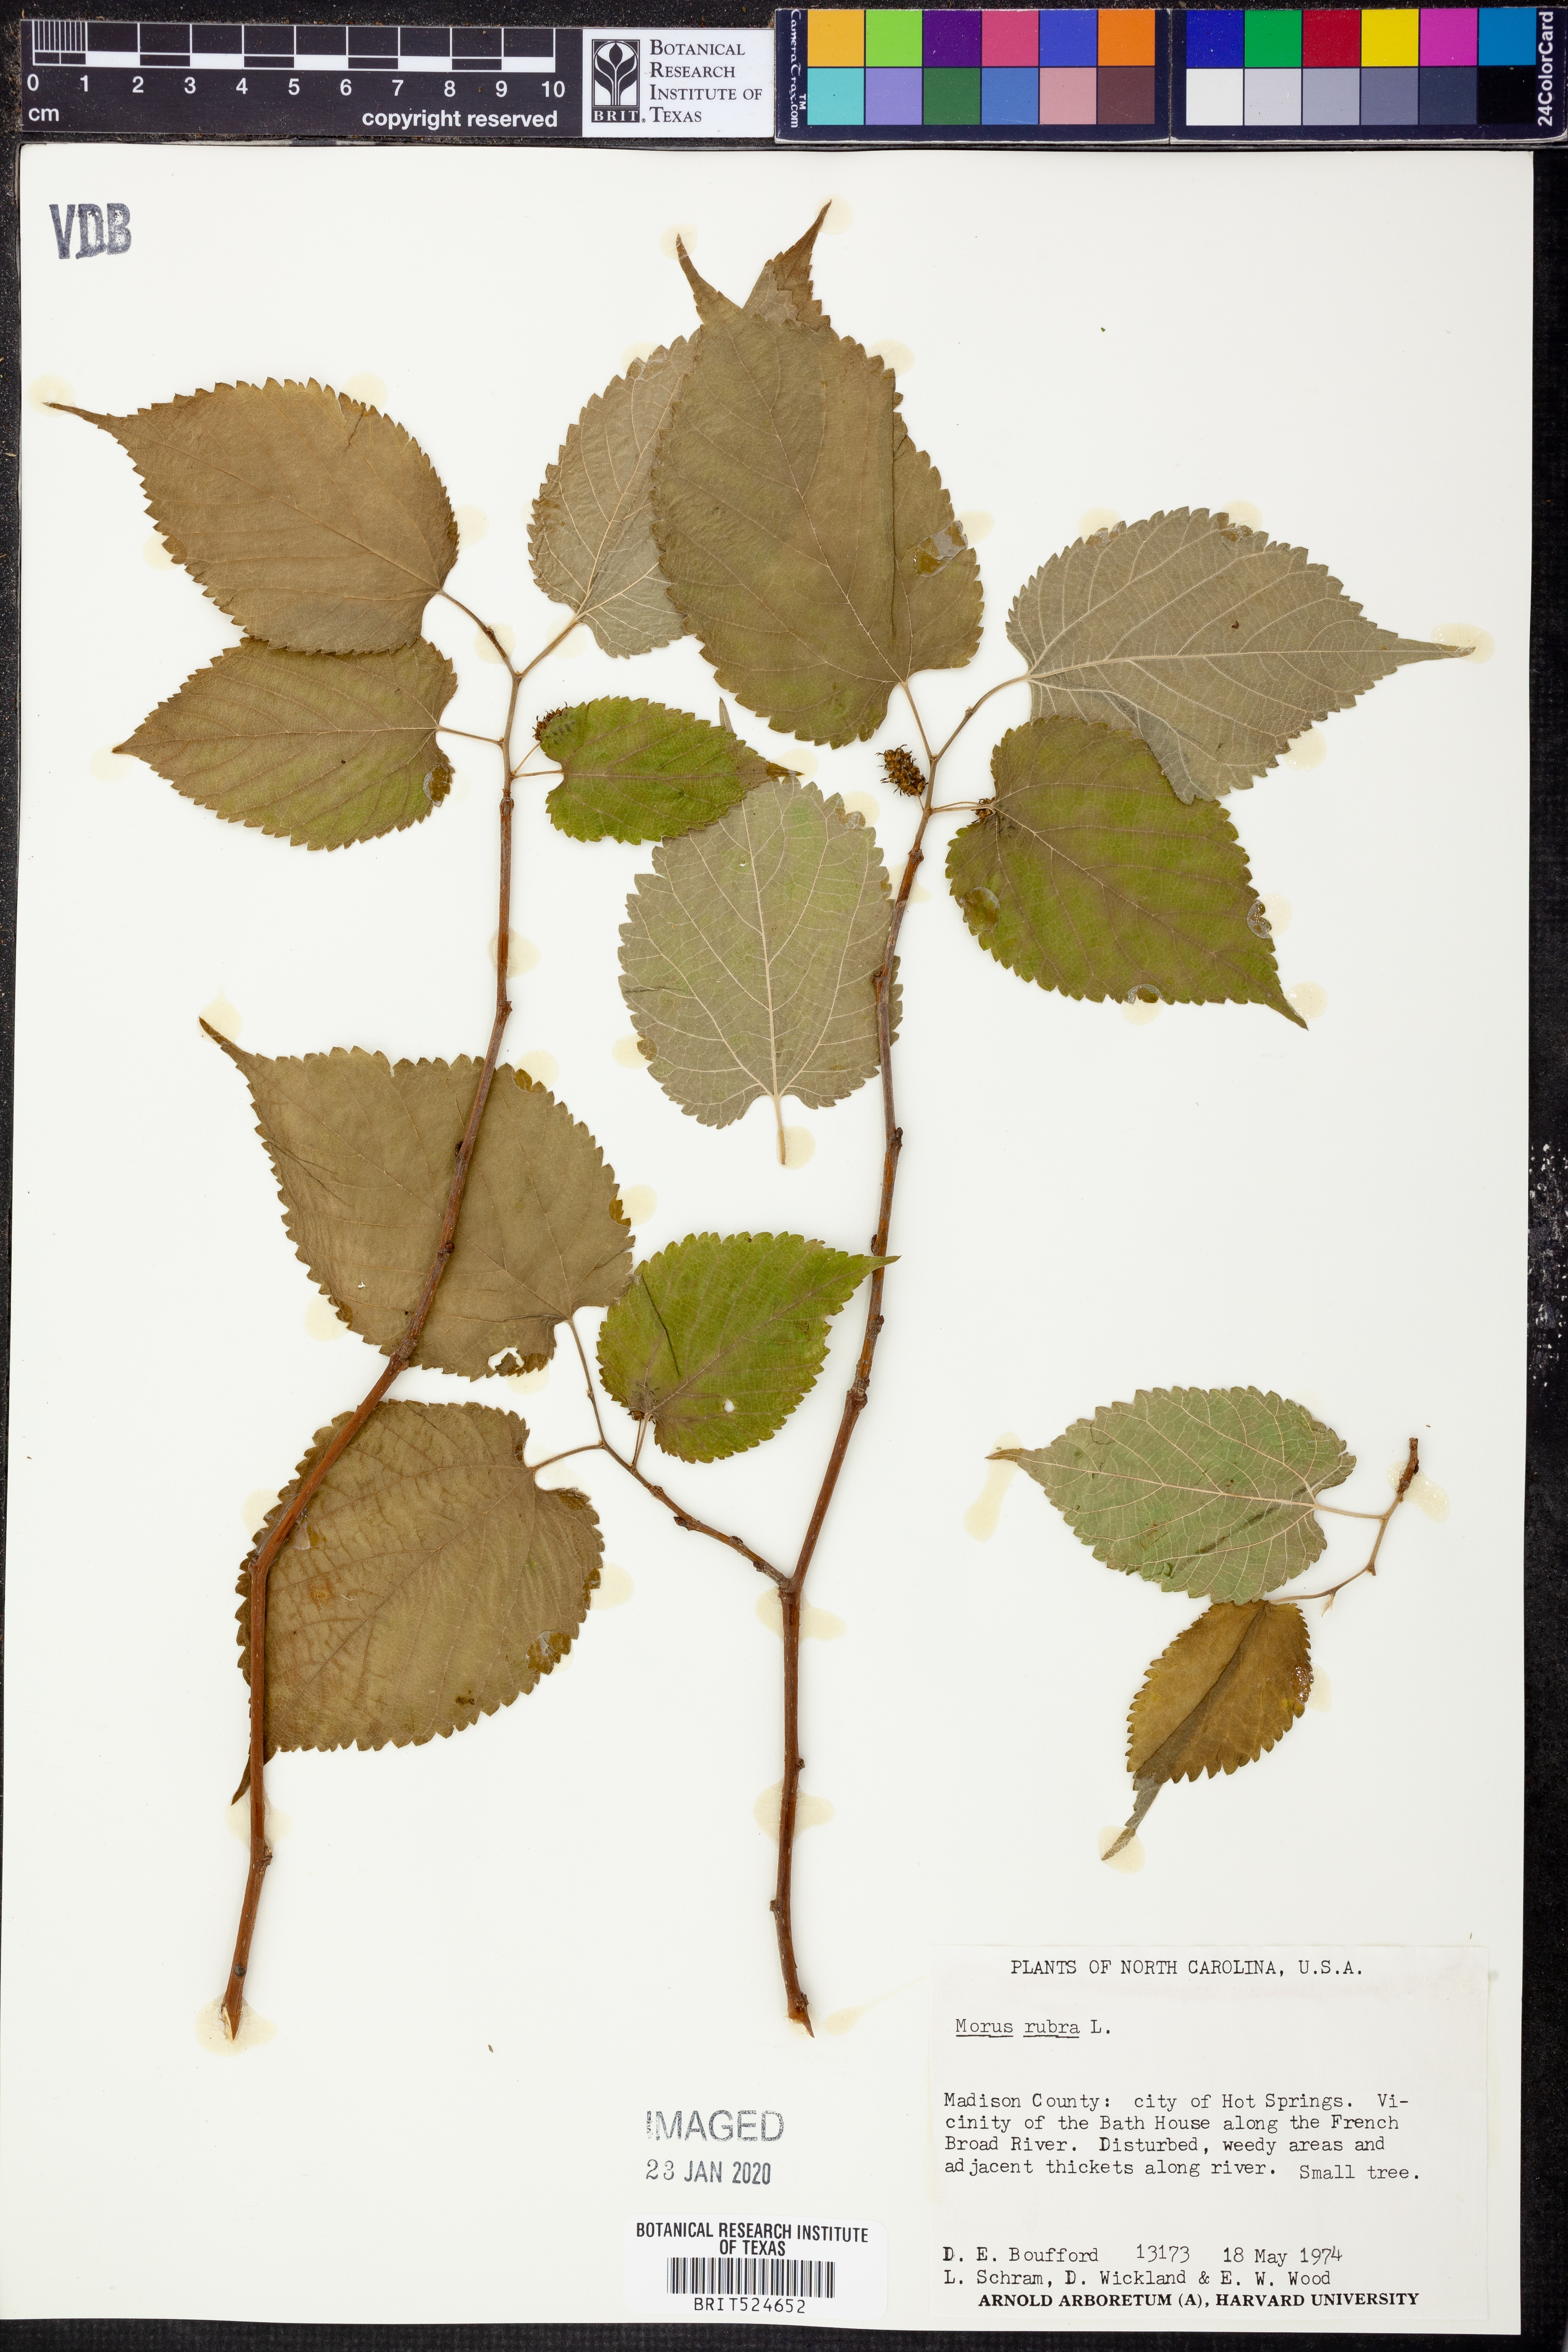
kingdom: Plantae
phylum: Tracheophyta
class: Magnoliopsida
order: Rosales
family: Moraceae
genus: Morus
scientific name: Morus rubra
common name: Red mulberry
